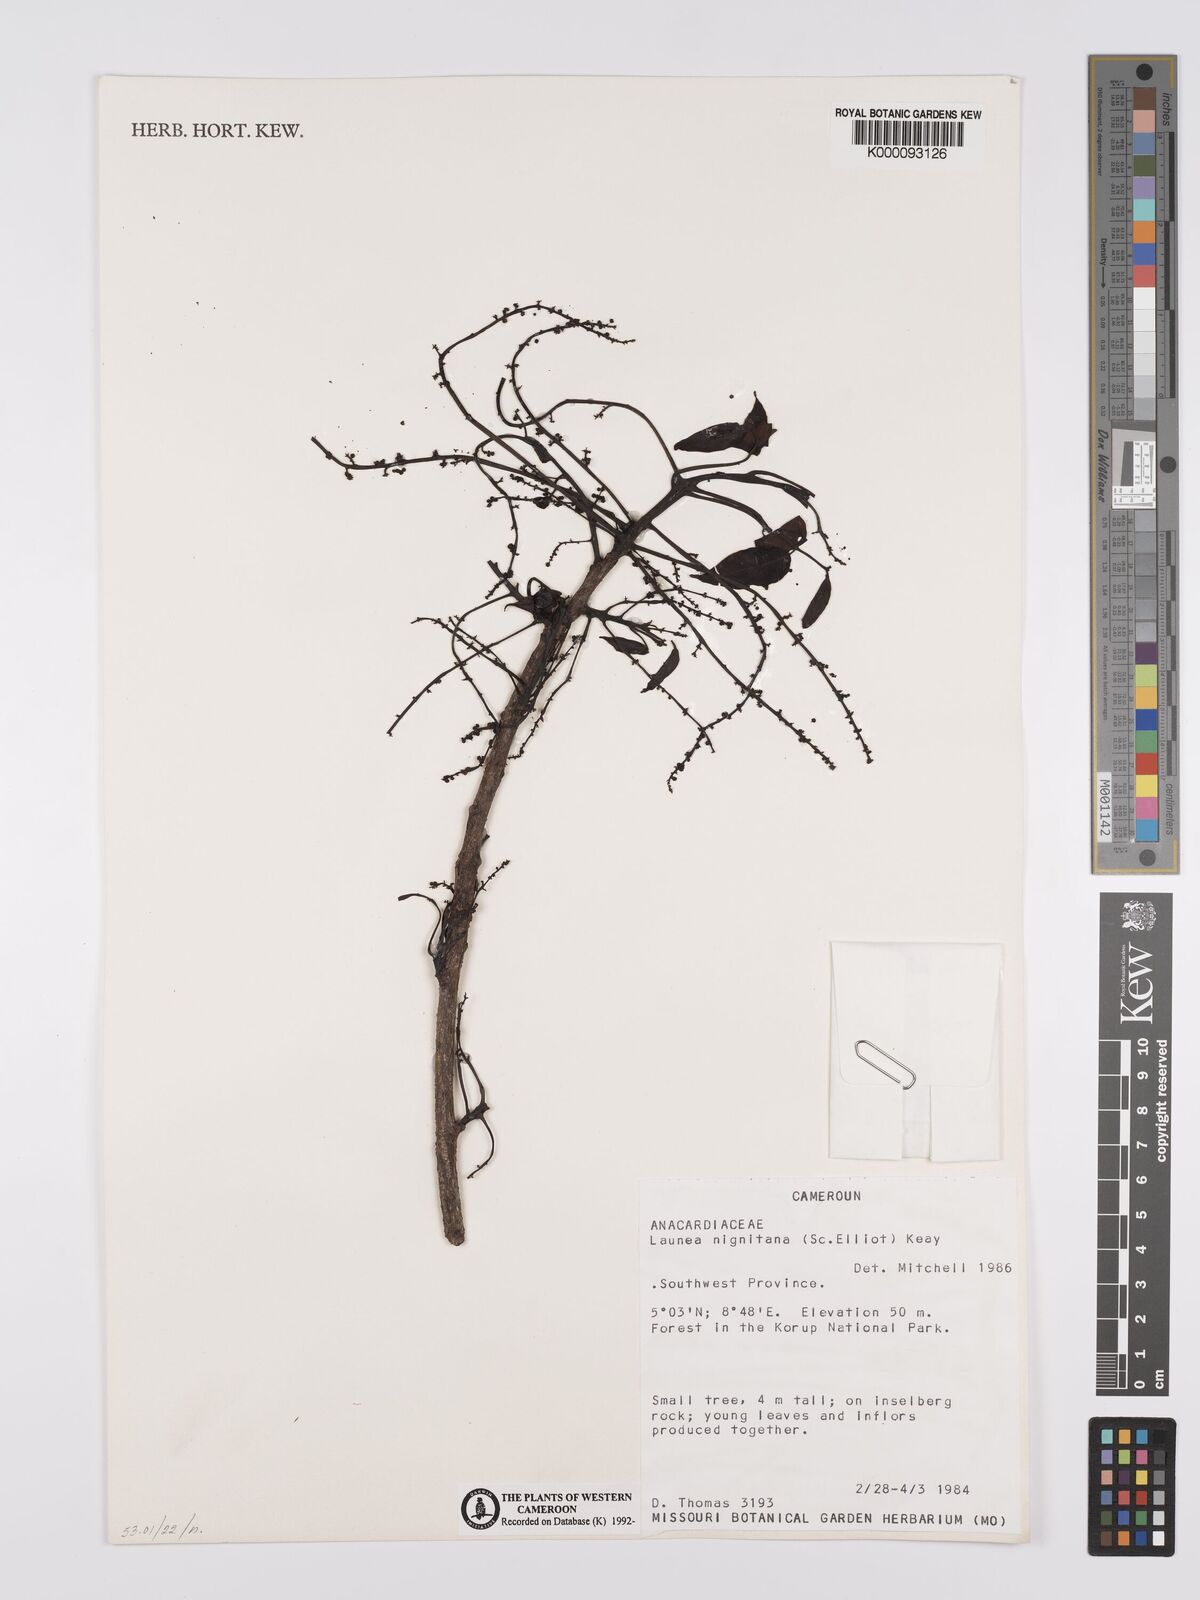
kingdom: Plantae
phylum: Tracheophyta
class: Magnoliopsida
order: Sapindales
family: Anacardiaceae
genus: Lannea
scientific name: Lannea nigritana
